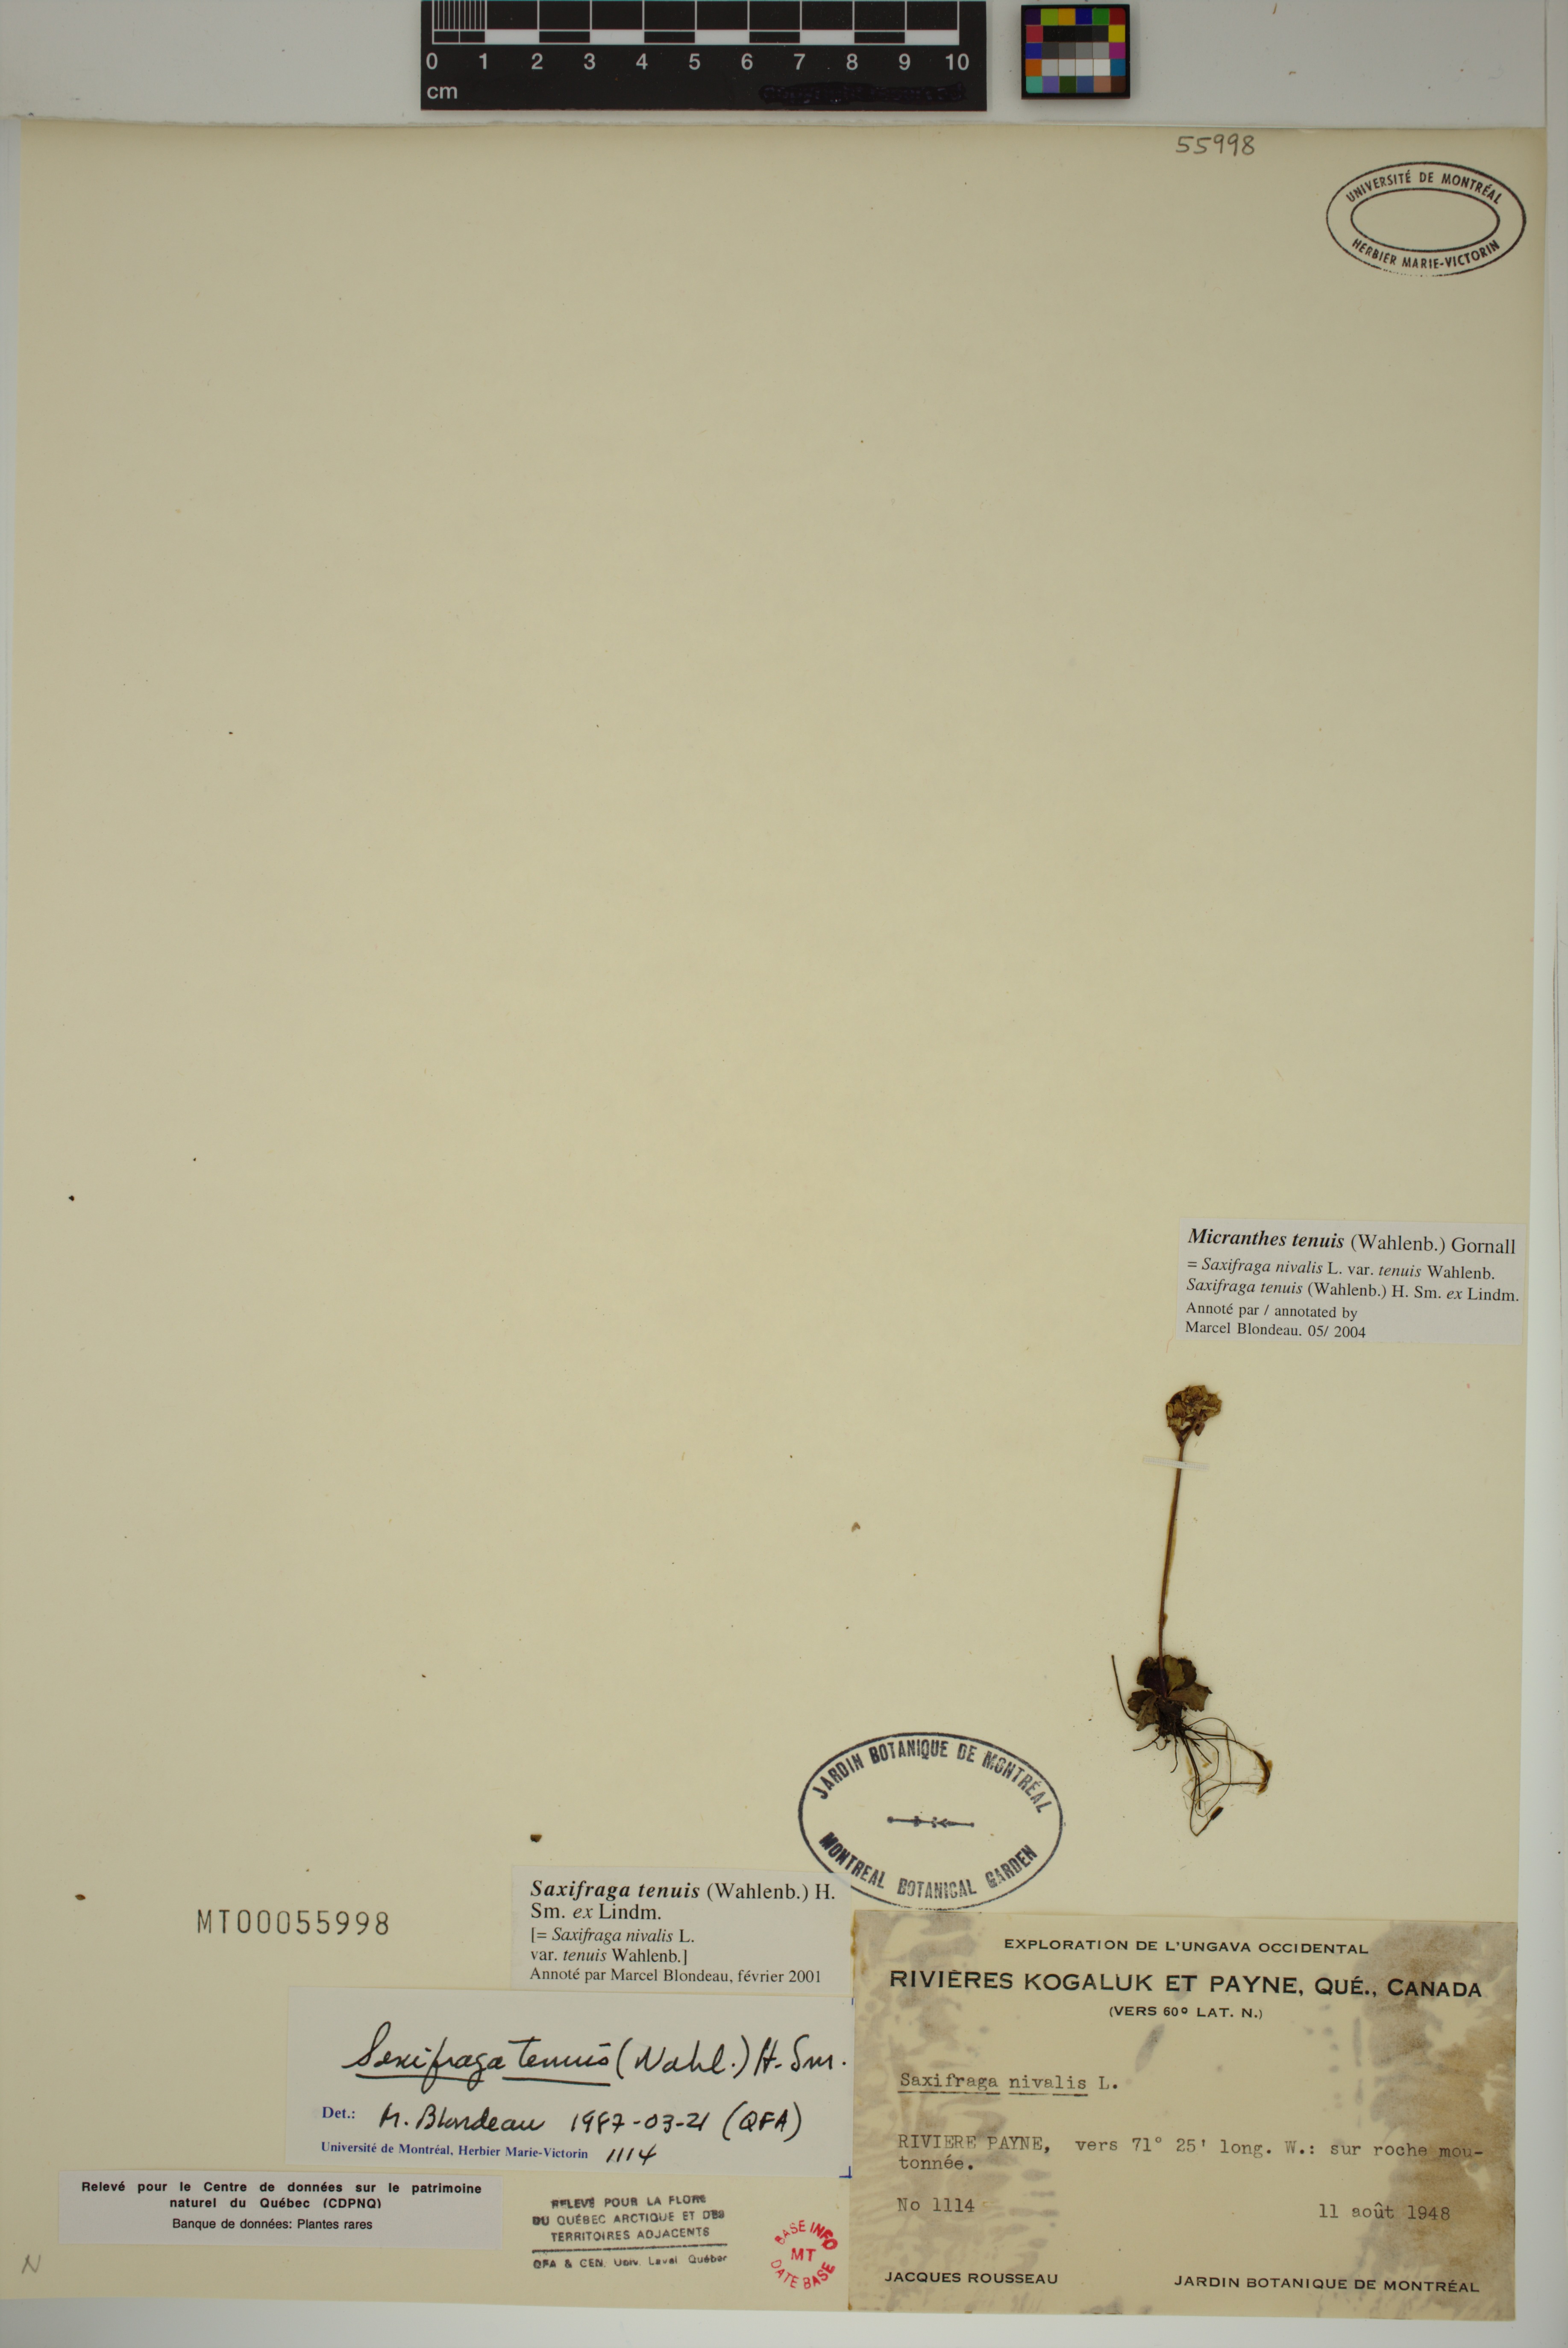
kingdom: Plantae
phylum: Tracheophyta
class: Magnoliopsida
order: Saxifragales
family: Saxifragaceae
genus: Micranthes
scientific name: Micranthes tenuis
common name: Ottertail pass saxifrage
